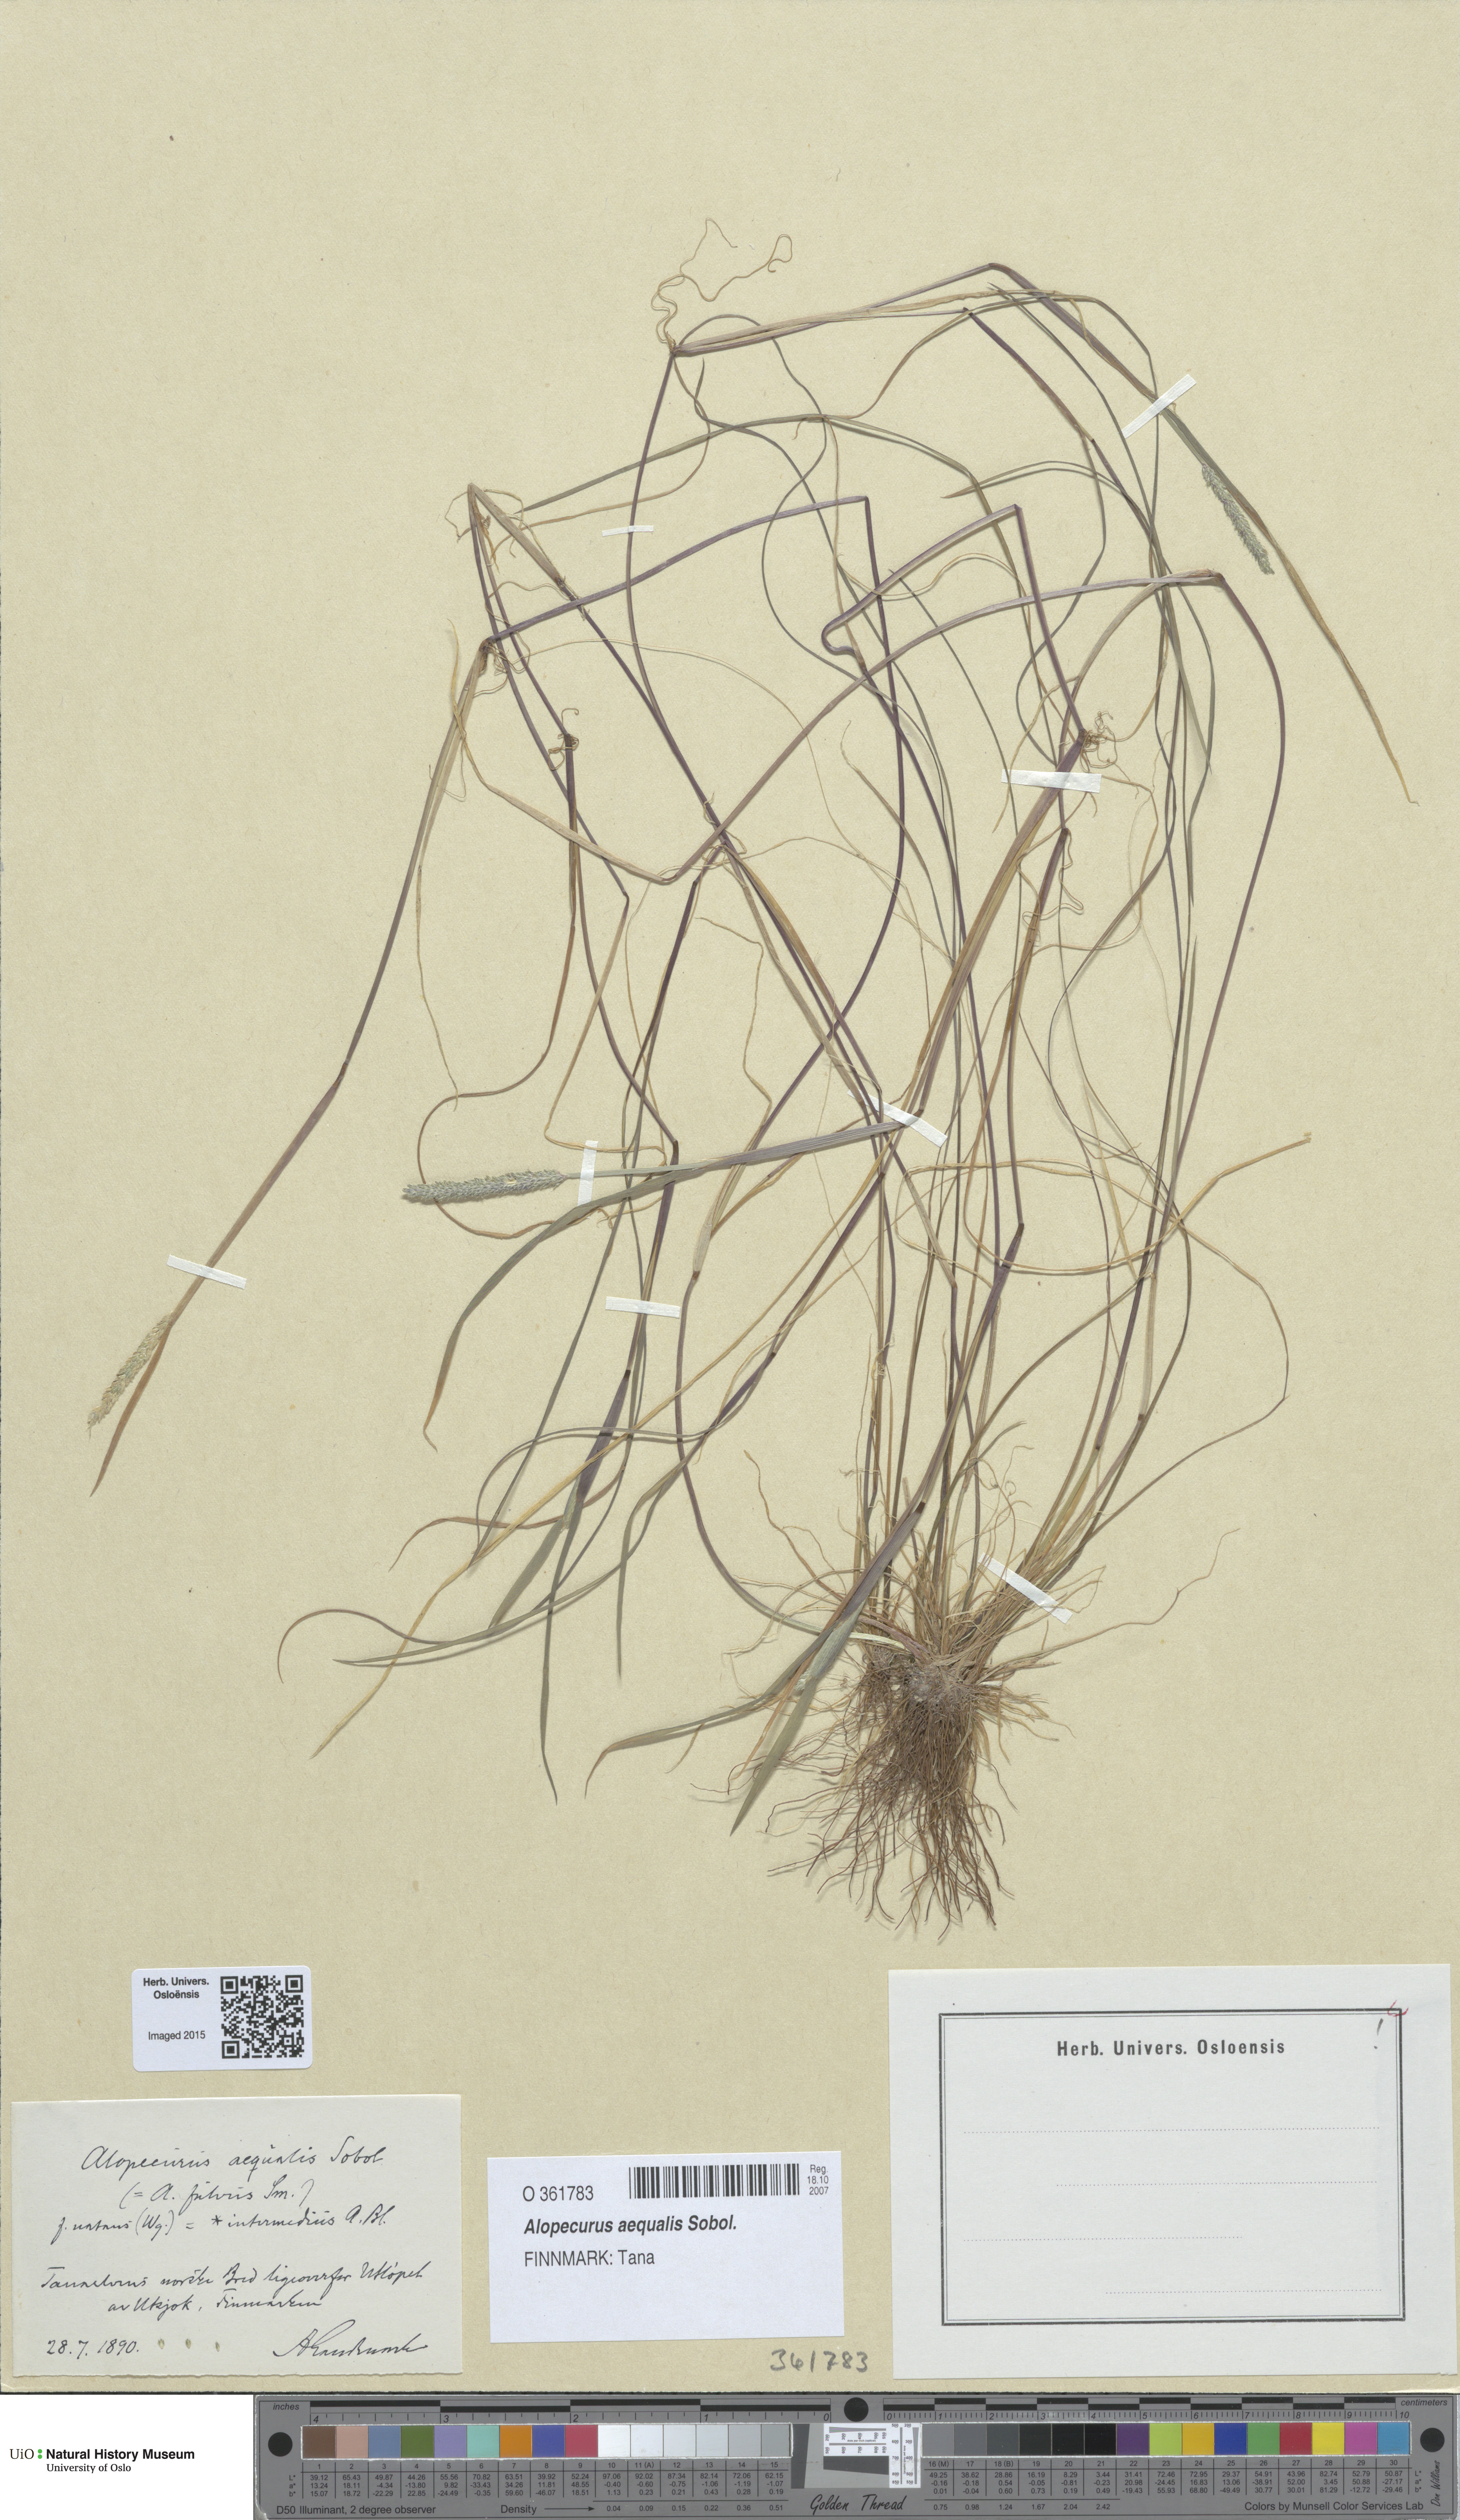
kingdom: Plantae
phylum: Tracheophyta
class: Liliopsida
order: Poales
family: Poaceae
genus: Alopecurus
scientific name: Alopecurus aequalis
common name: Orange foxtail
